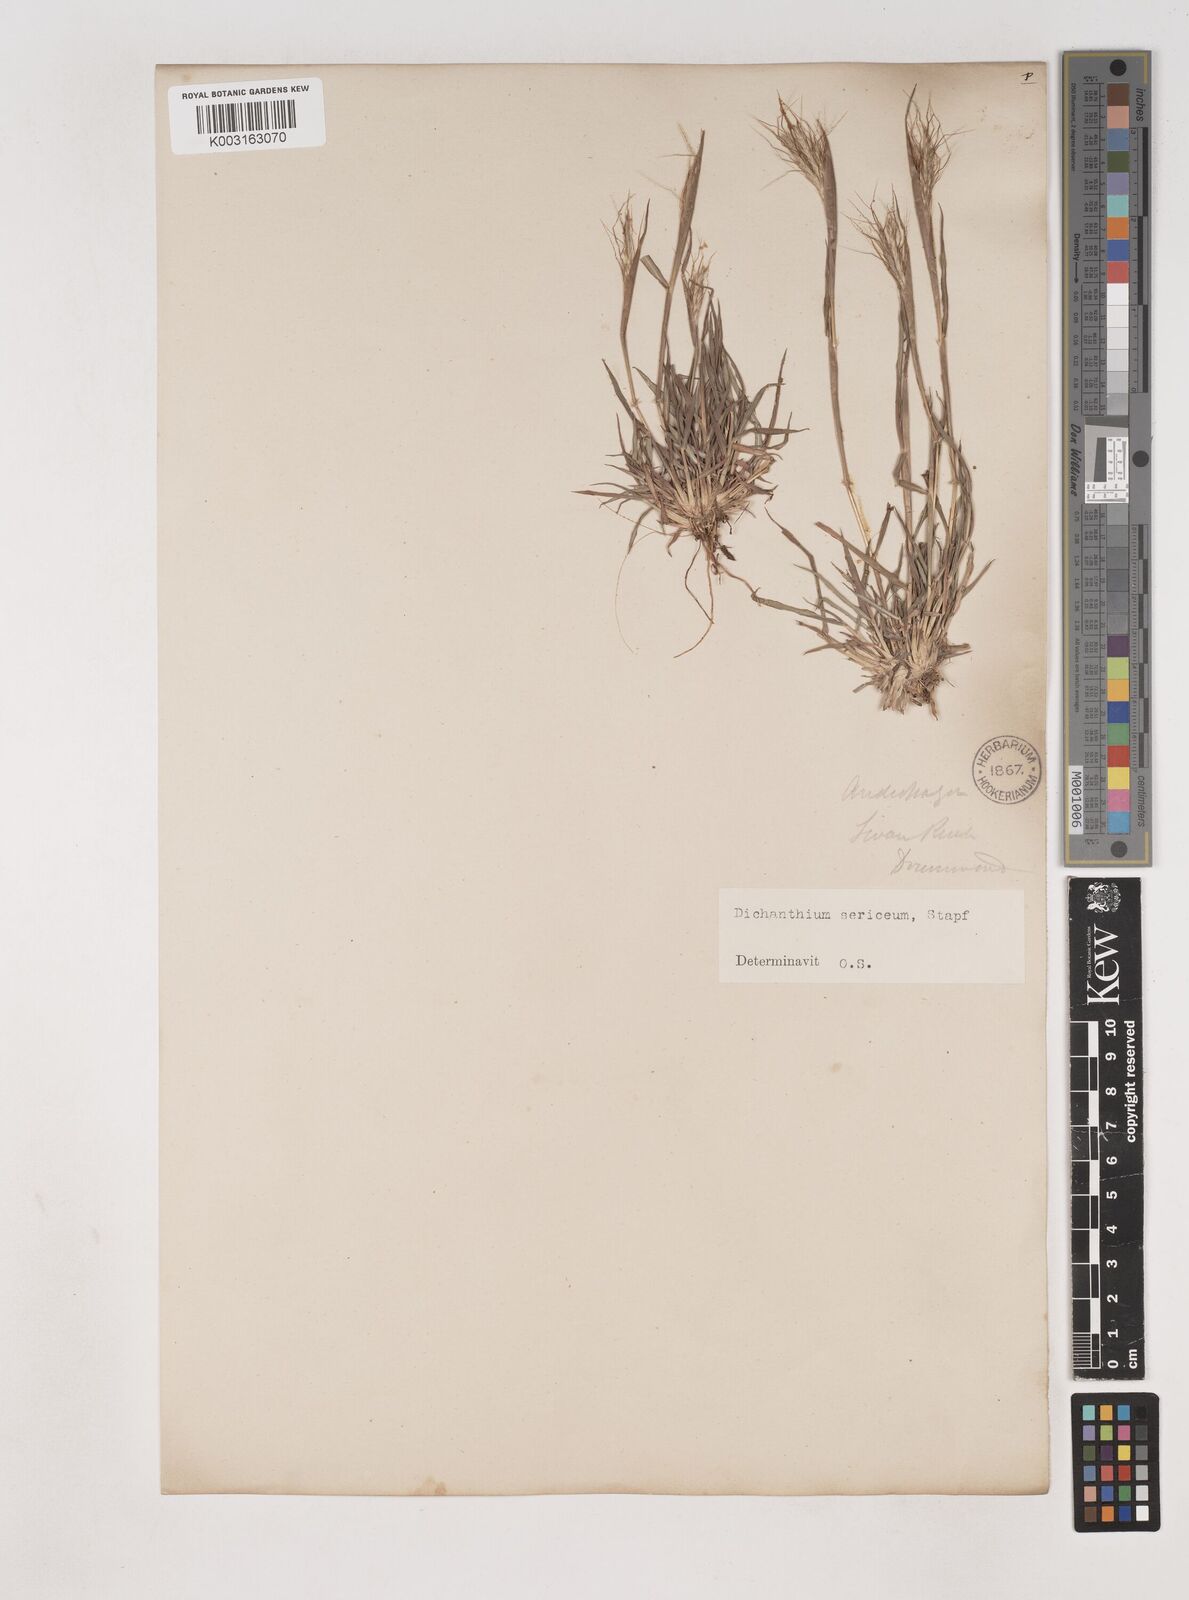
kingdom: Plantae
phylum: Tracheophyta
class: Liliopsida
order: Poales
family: Poaceae
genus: Dichanthium
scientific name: Dichanthium sericeum
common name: Silky bluestem
